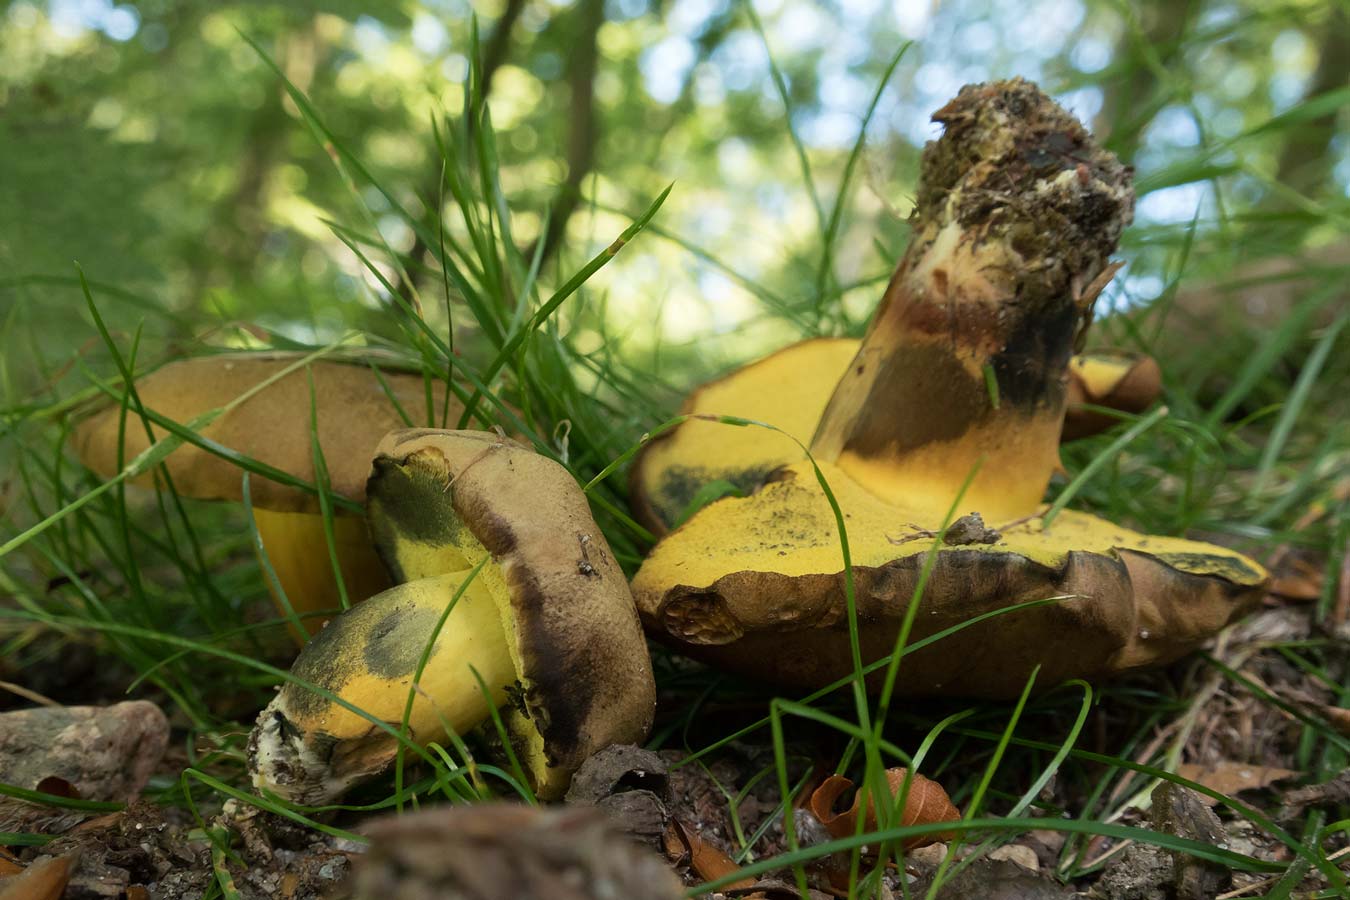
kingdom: Fungi
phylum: Basidiomycota
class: Agaricomycetes
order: Boletales
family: Boletaceae
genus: Cyanoboletus
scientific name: Cyanoboletus pulverulentus
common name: sortblånende rørhat
